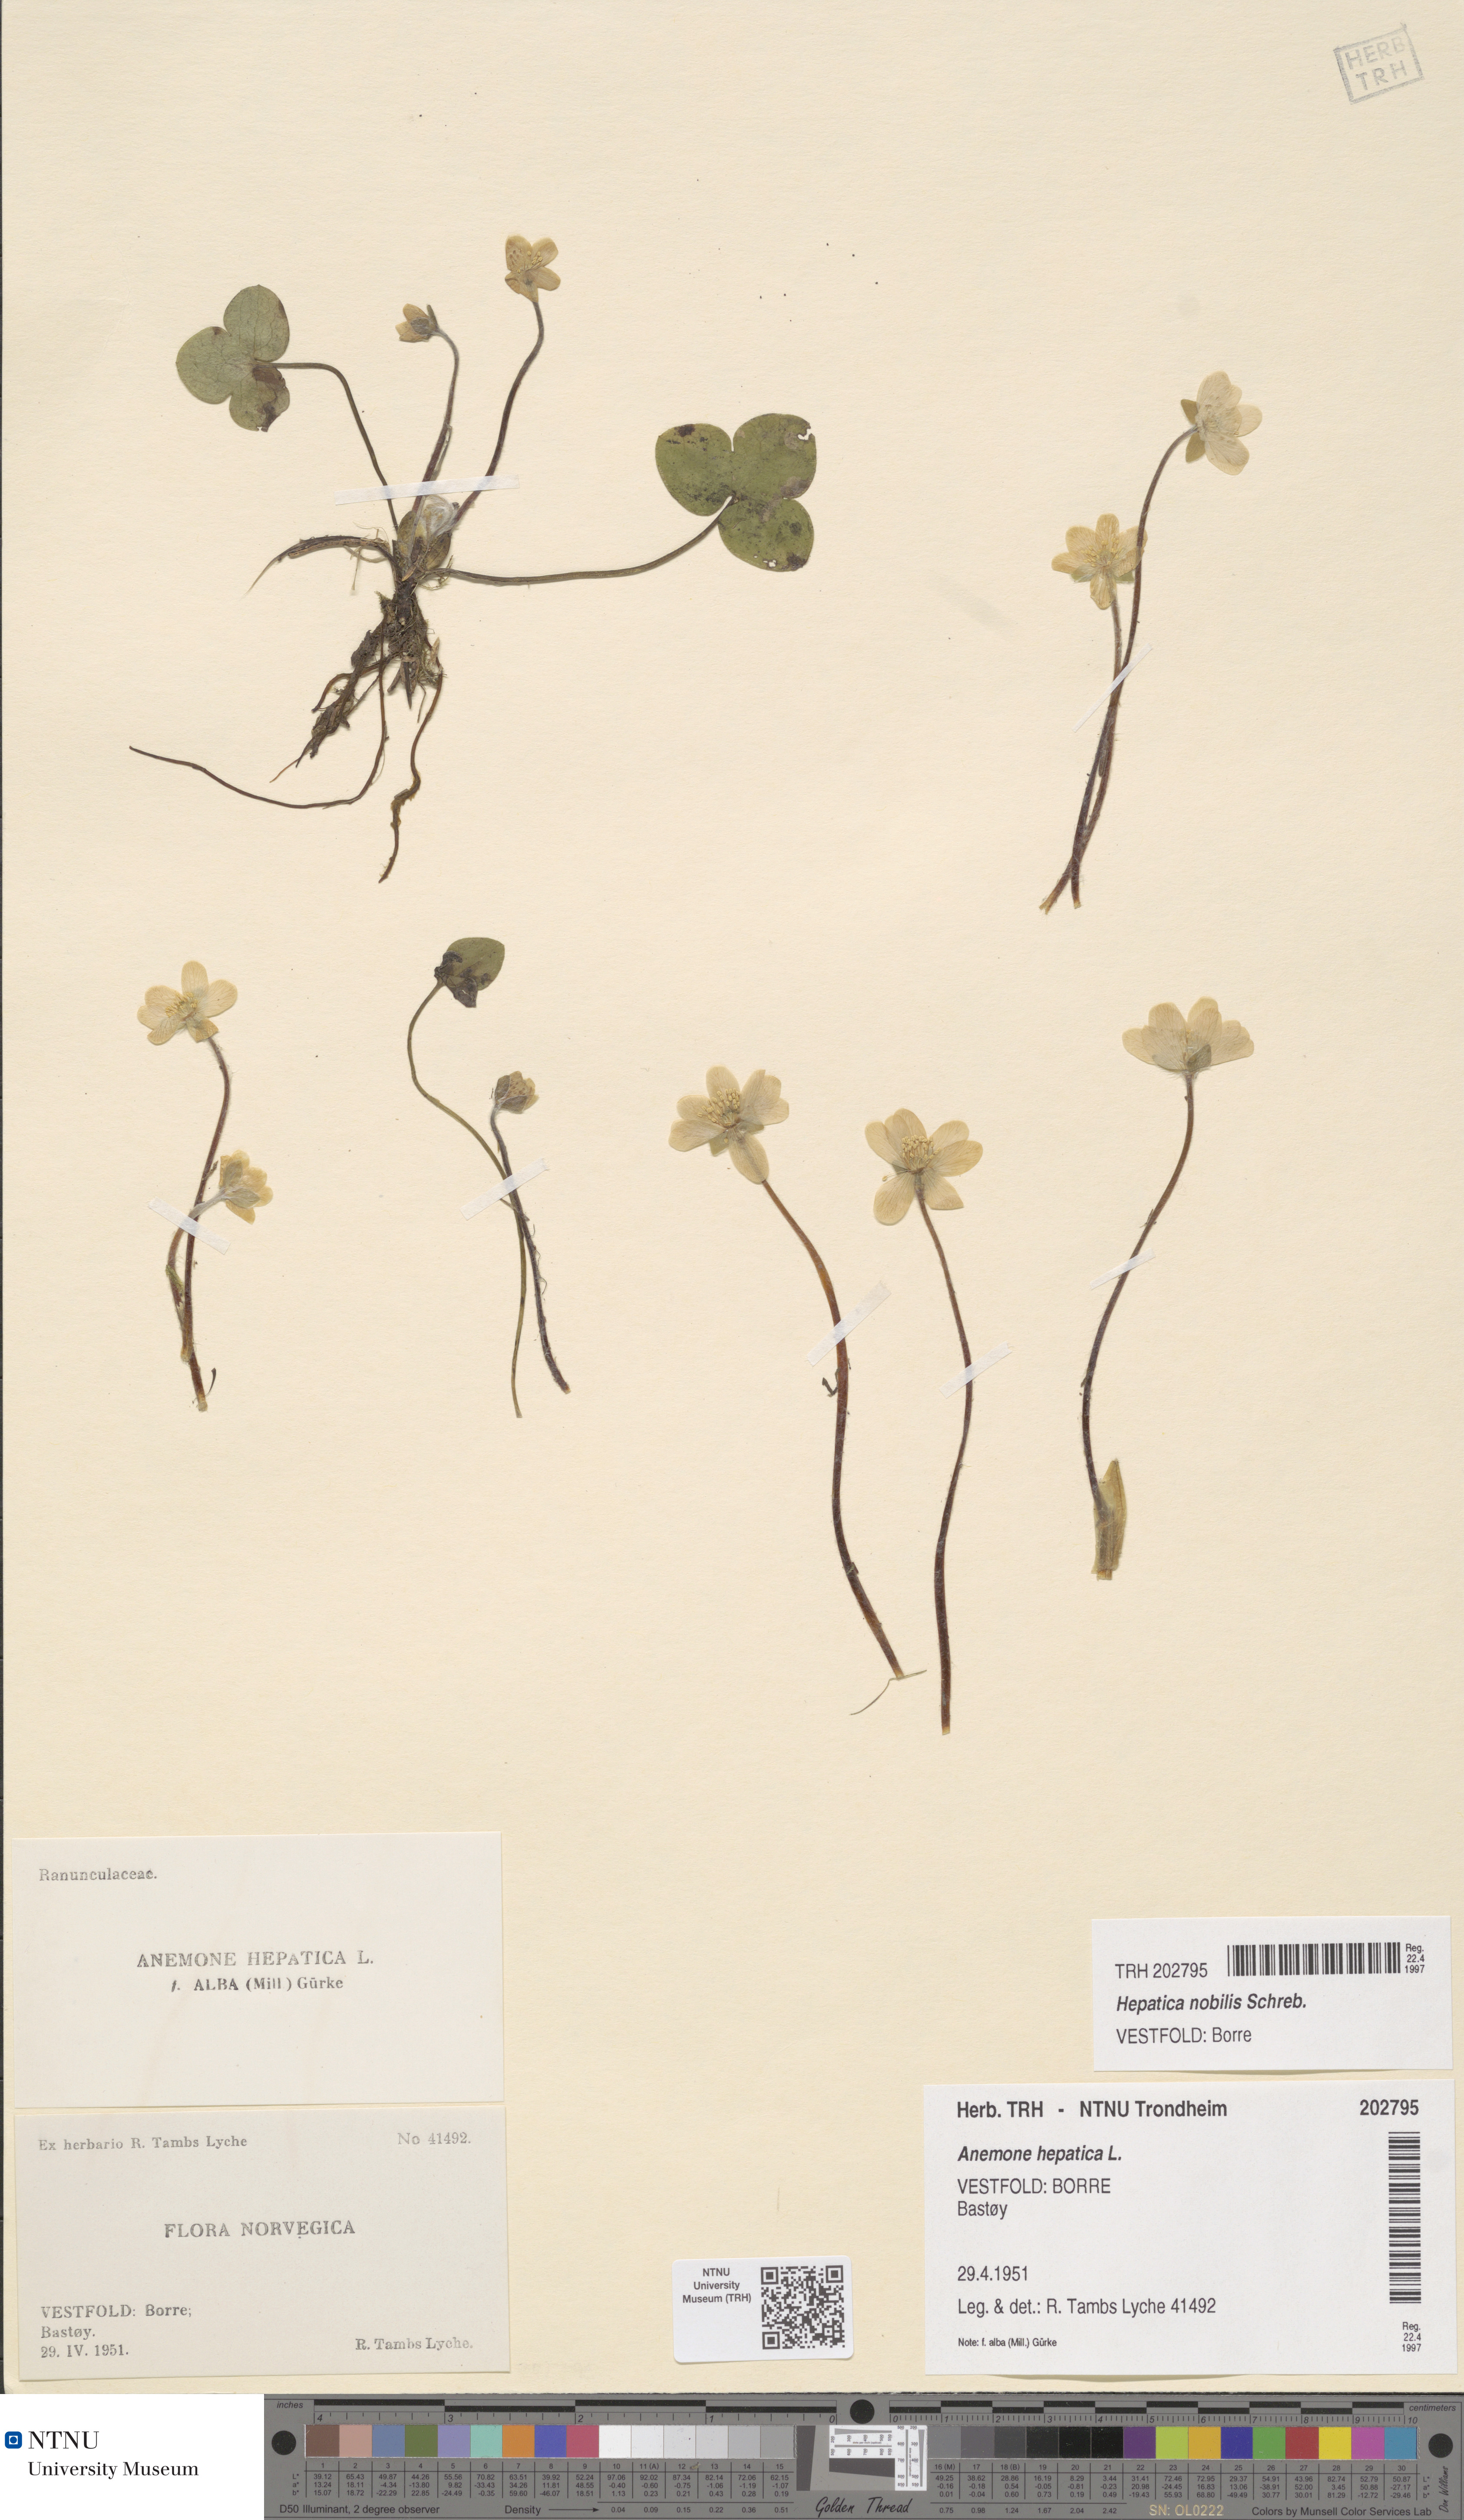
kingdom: Plantae
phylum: Tracheophyta
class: Magnoliopsida
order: Ranunculales
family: Ranunculaceae
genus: Hepatica
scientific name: Hepatica nobilis
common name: Liverleaf
